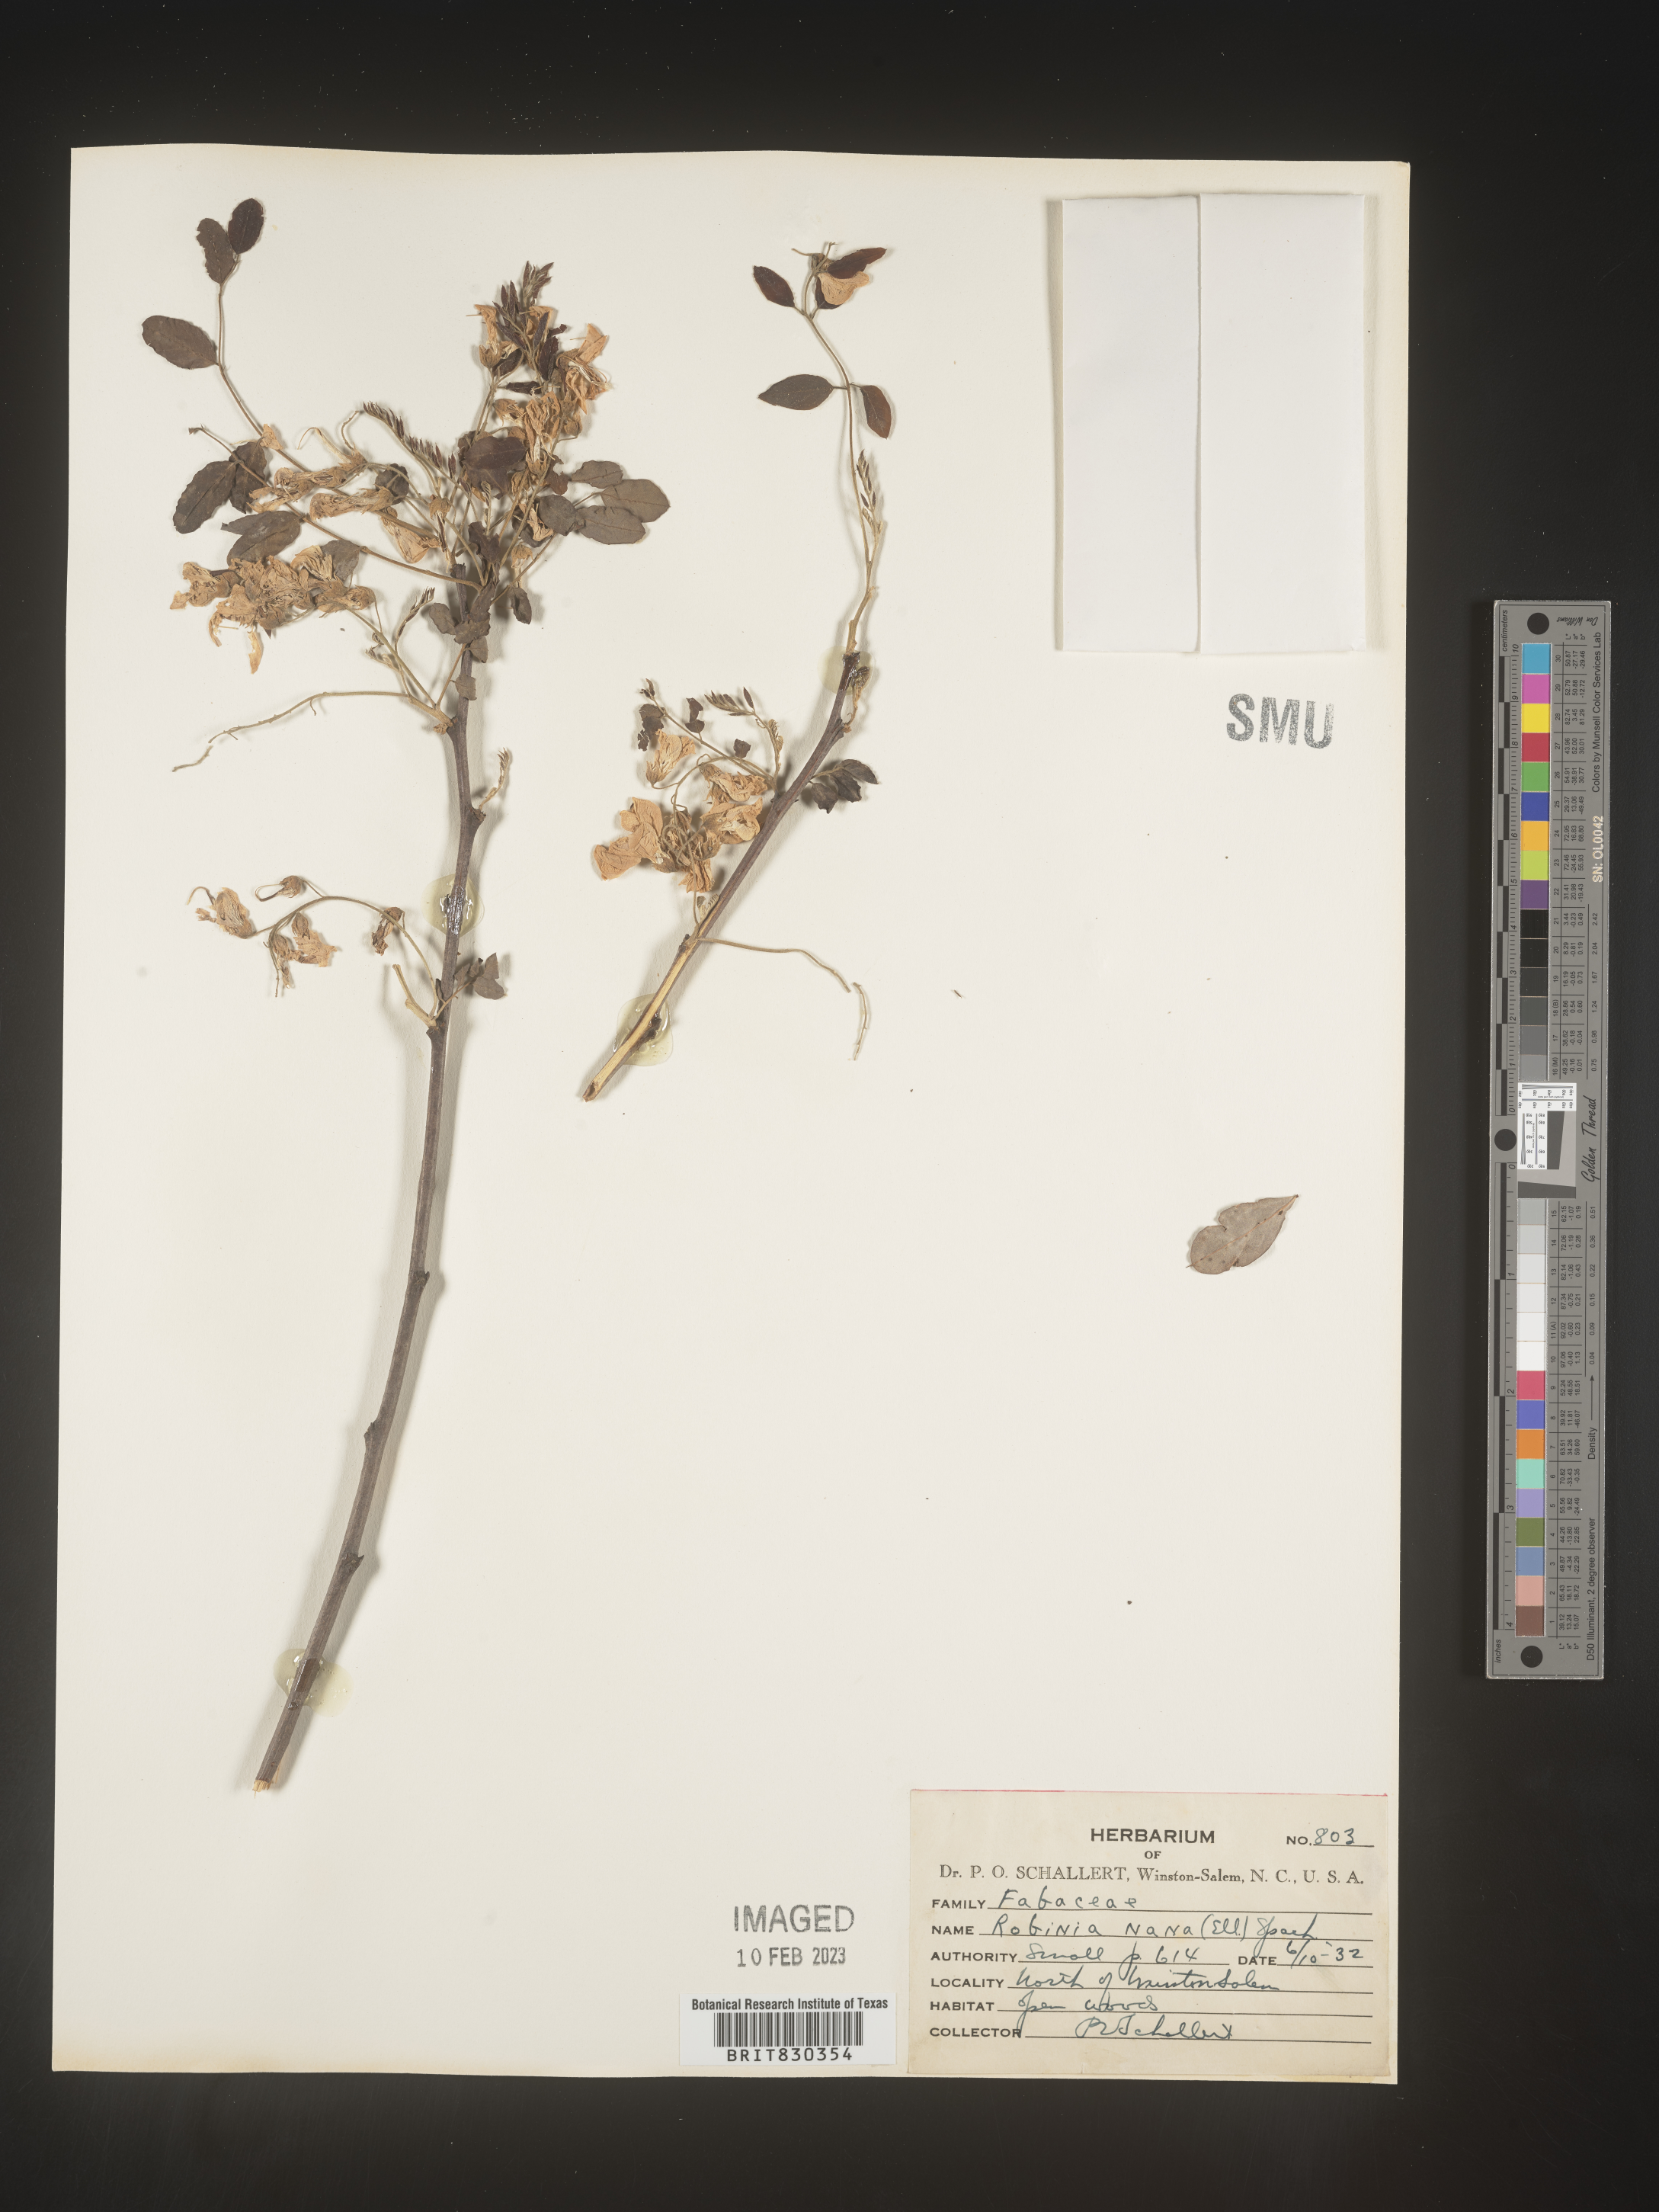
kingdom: Plantae
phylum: Tracheophyta
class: Magnoliopsida
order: Fabales
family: Fabaceae
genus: Robinia
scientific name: Robinia
